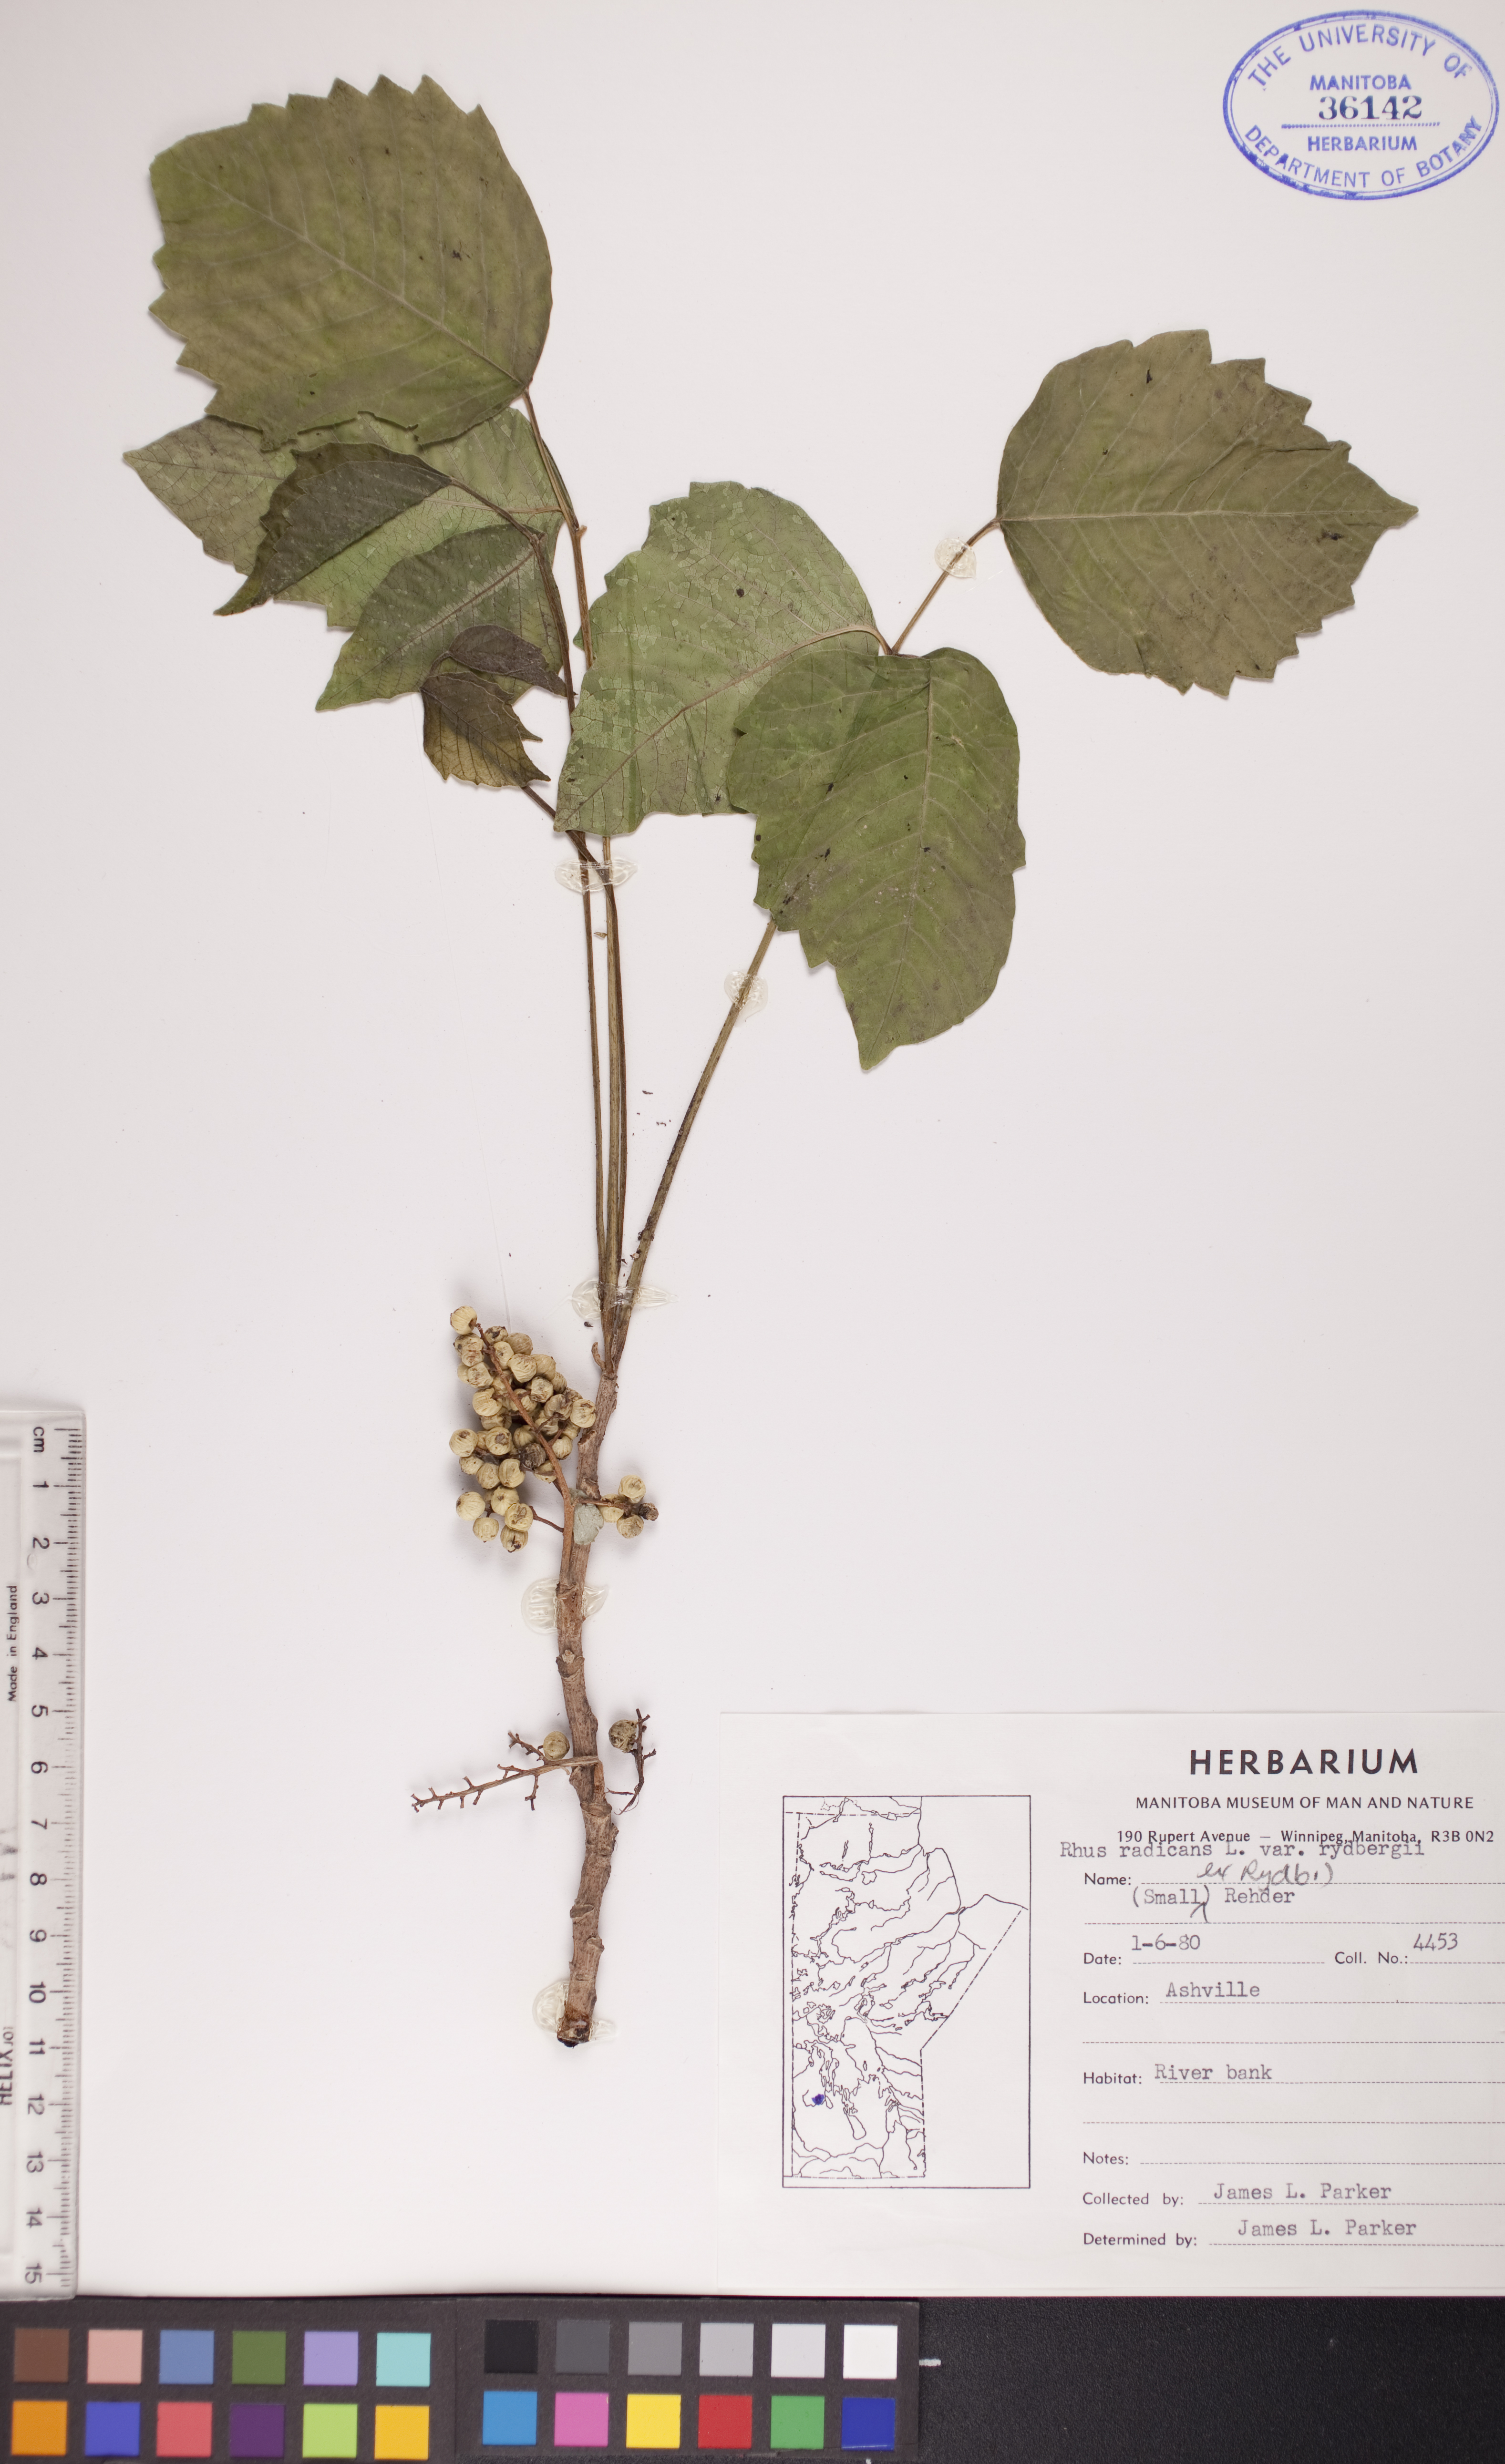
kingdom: Plantae
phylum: Tracheophyta
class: Magnoliopsida
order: Sapindales
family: Anacardiaceae
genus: Toxicodendron
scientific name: Toxicodendron rydbergii
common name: Rydberg's poison-ivy
